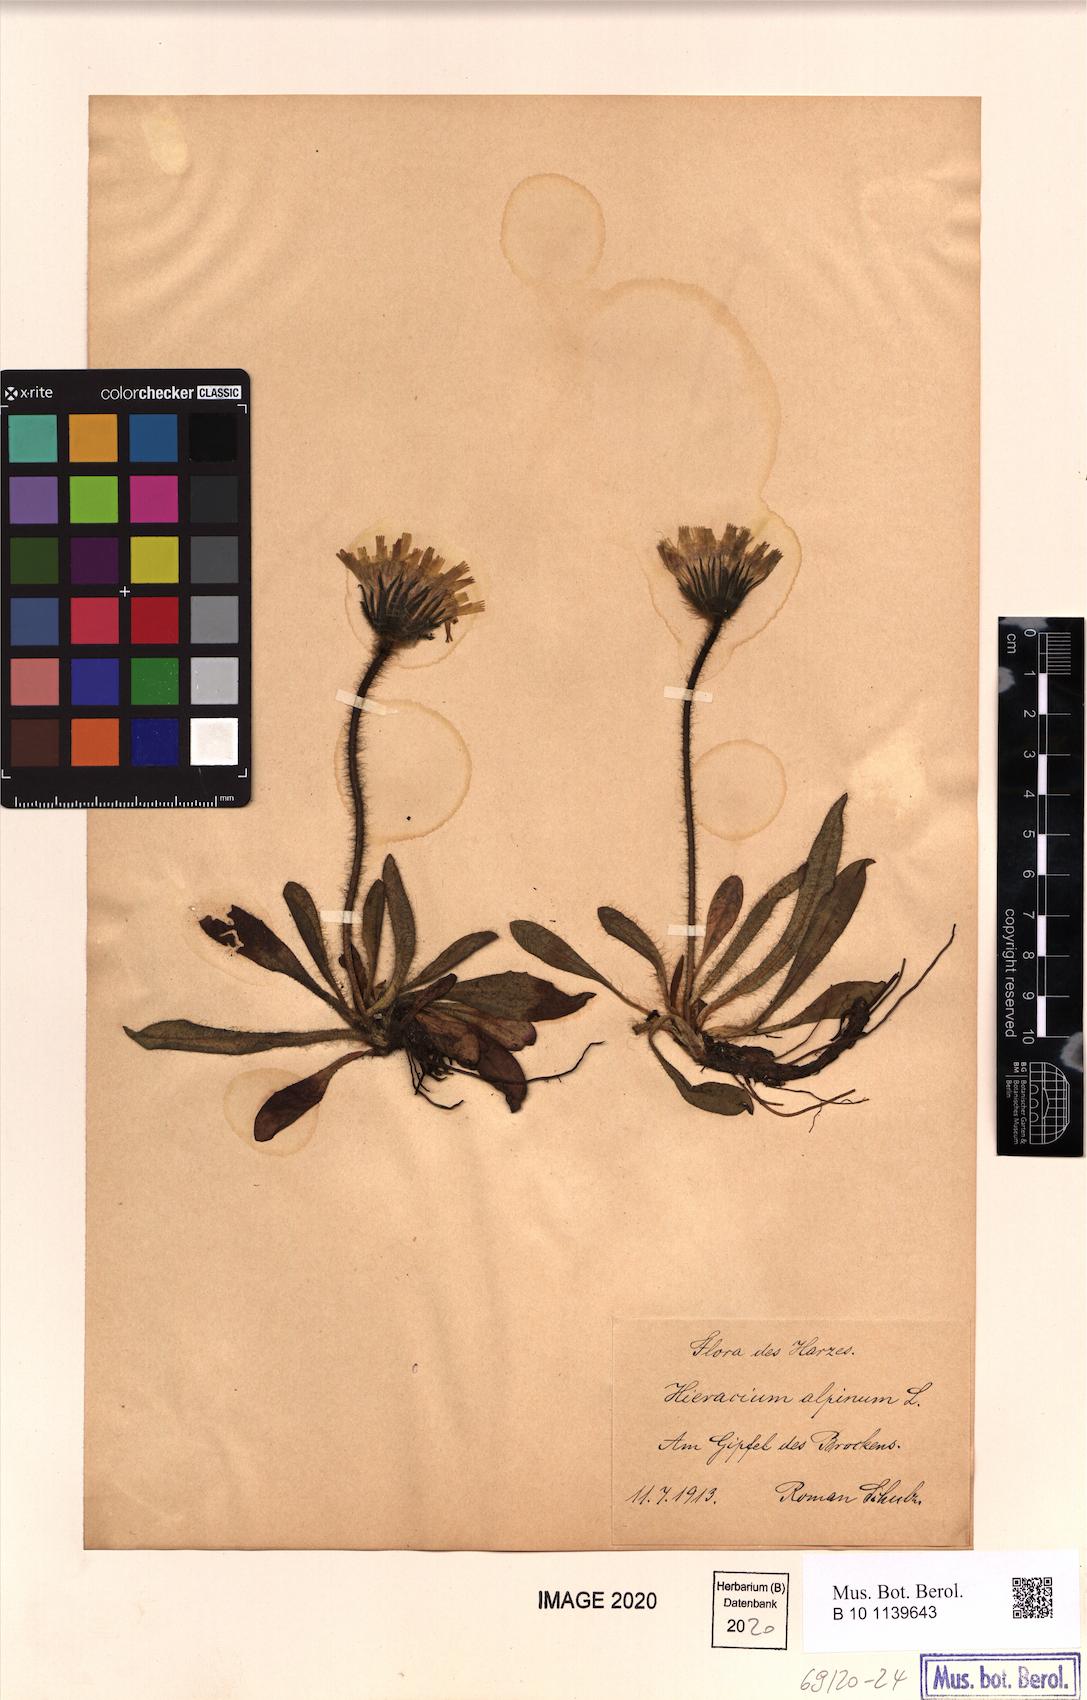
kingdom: Plantae
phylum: Tracheophyta
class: Magnoliopsida
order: Asterales
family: Asteraceae
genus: Hieracium
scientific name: Hieracium alpinum
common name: Alpine hawkweed
